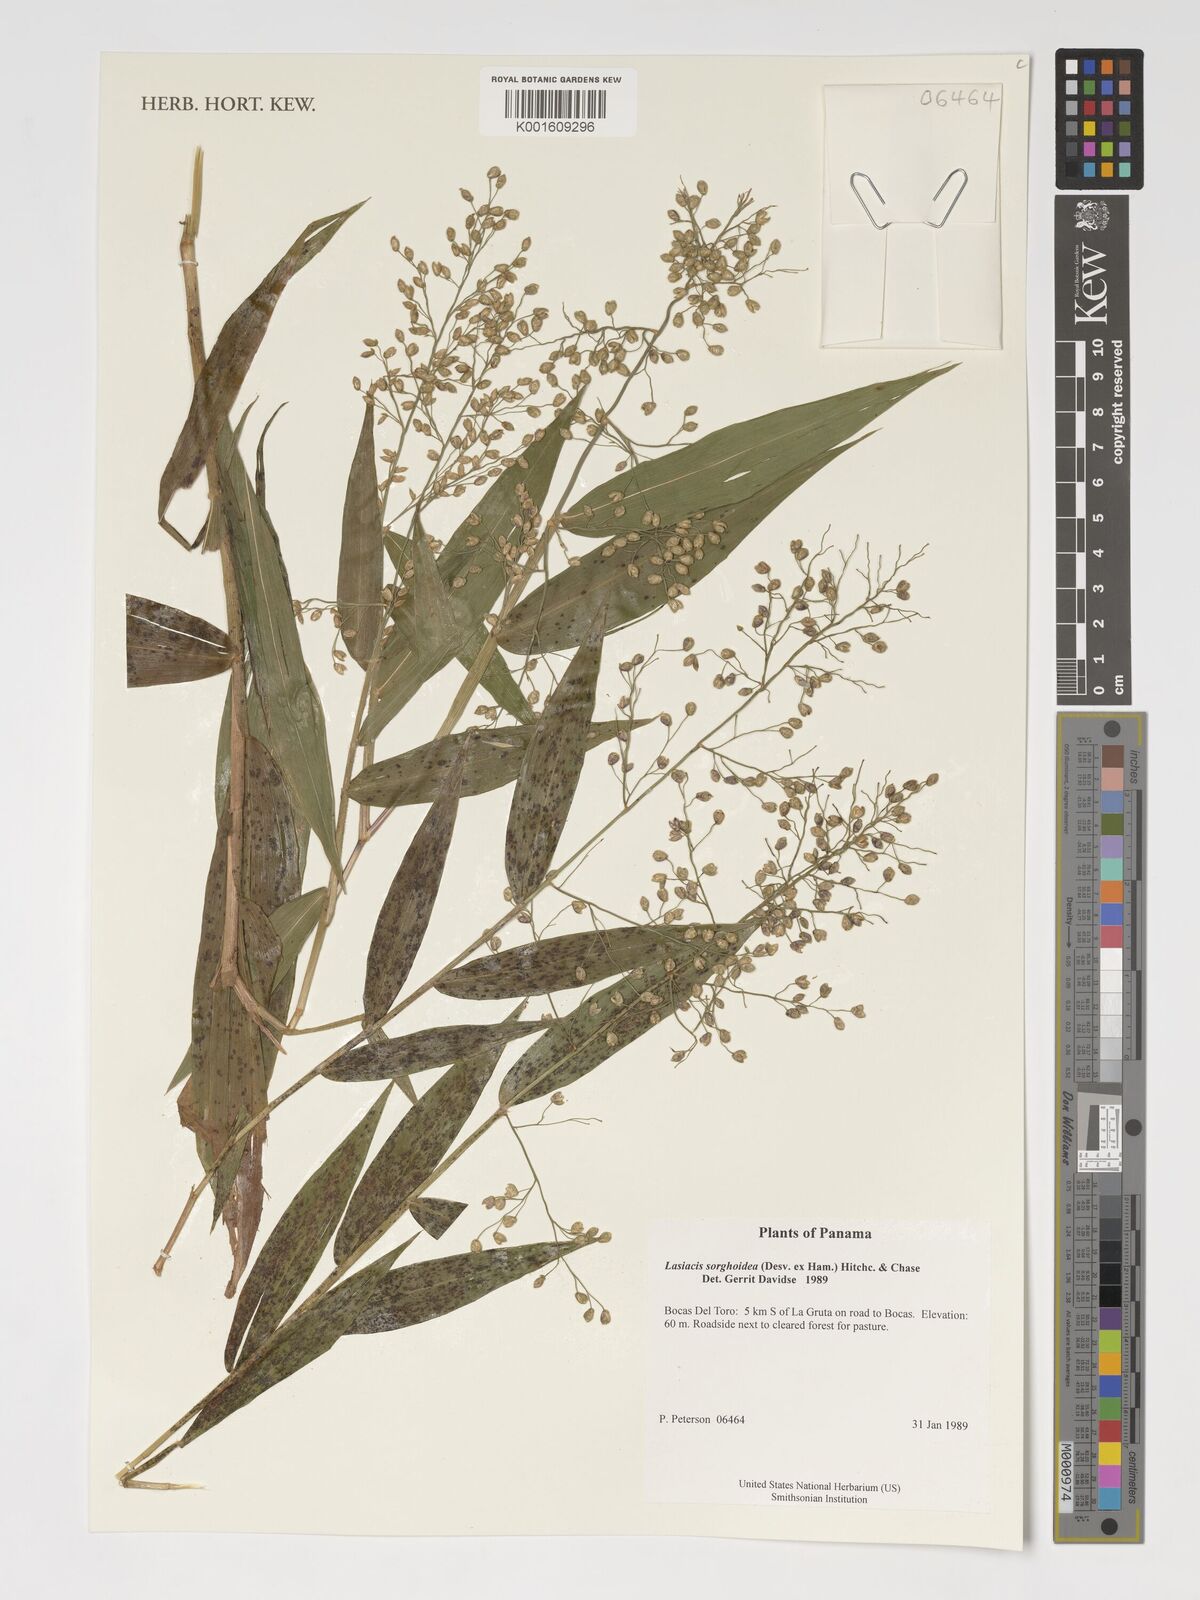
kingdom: Plantae
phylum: Tracheophyta
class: Liliopsida
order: Poales
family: Poaceae
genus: Lasiacis
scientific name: Lasiacis maculata
